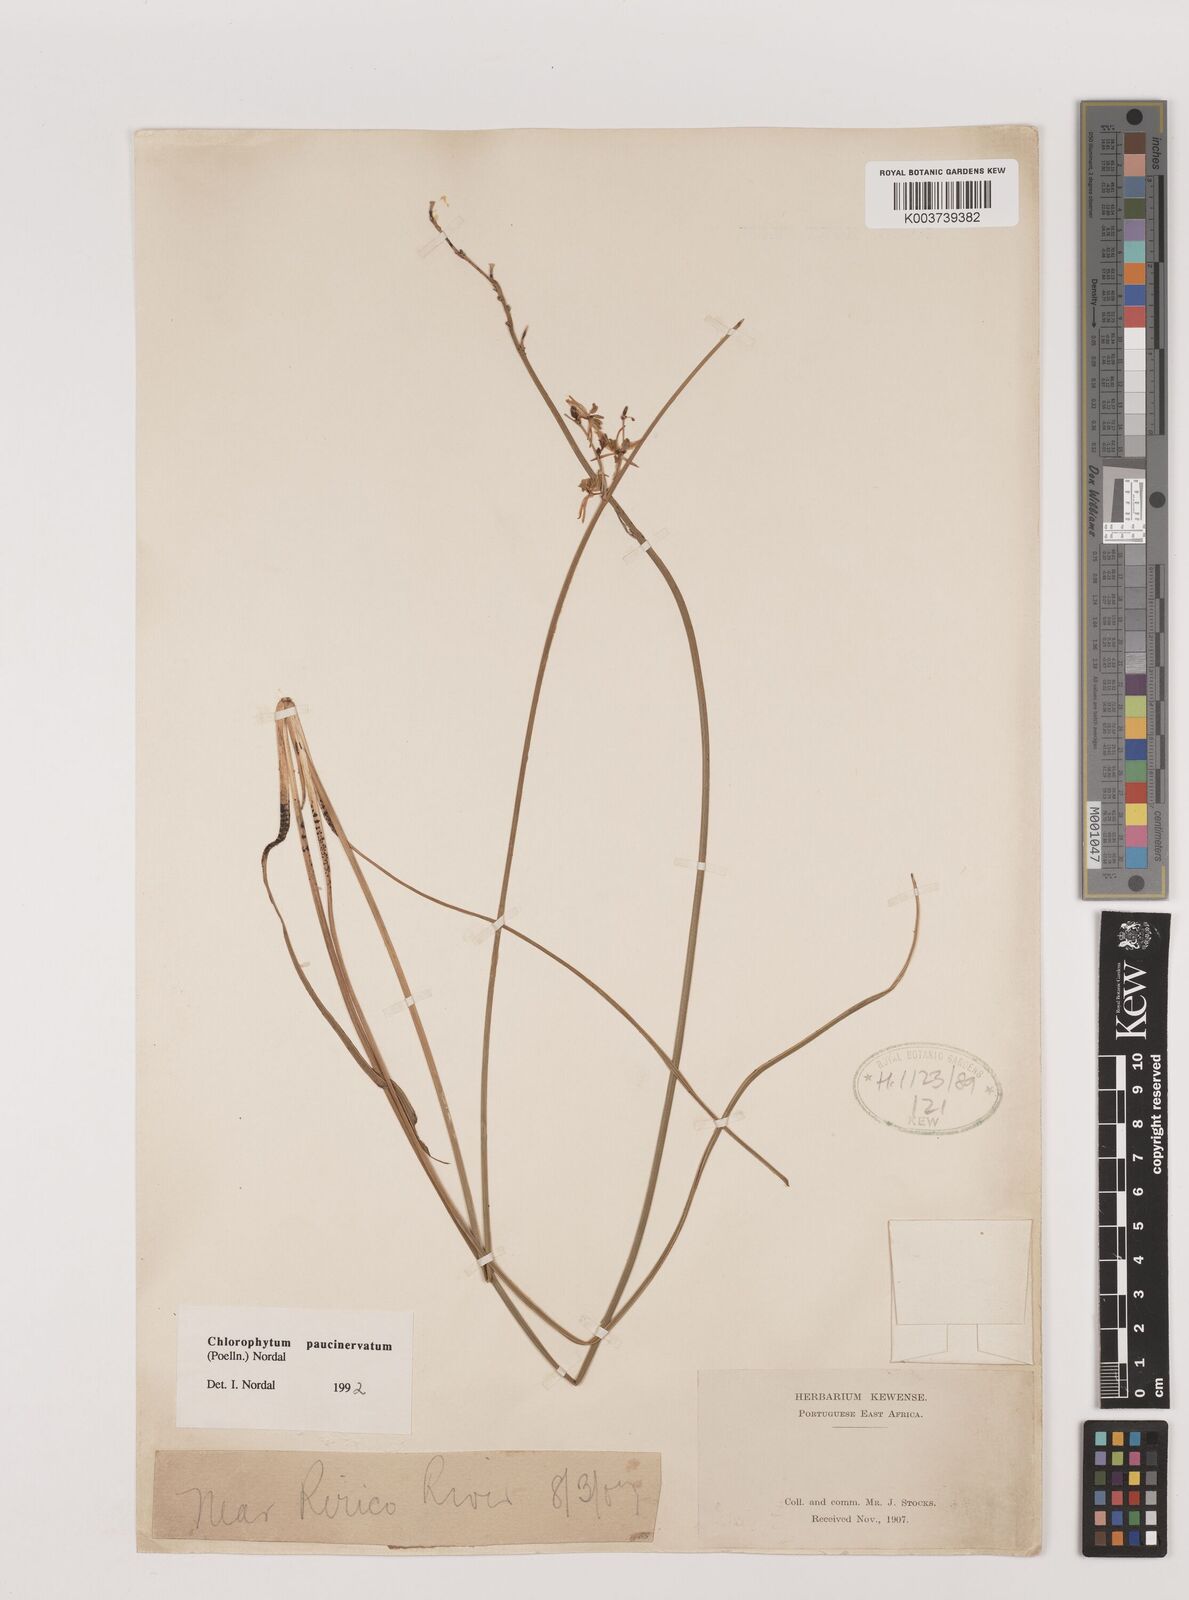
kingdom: Plantae
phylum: Tracheophyta
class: Liliopsida
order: Asparagales
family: Asparagaceae
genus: Chlorophytum
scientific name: Chlorophytum paucinervatum
